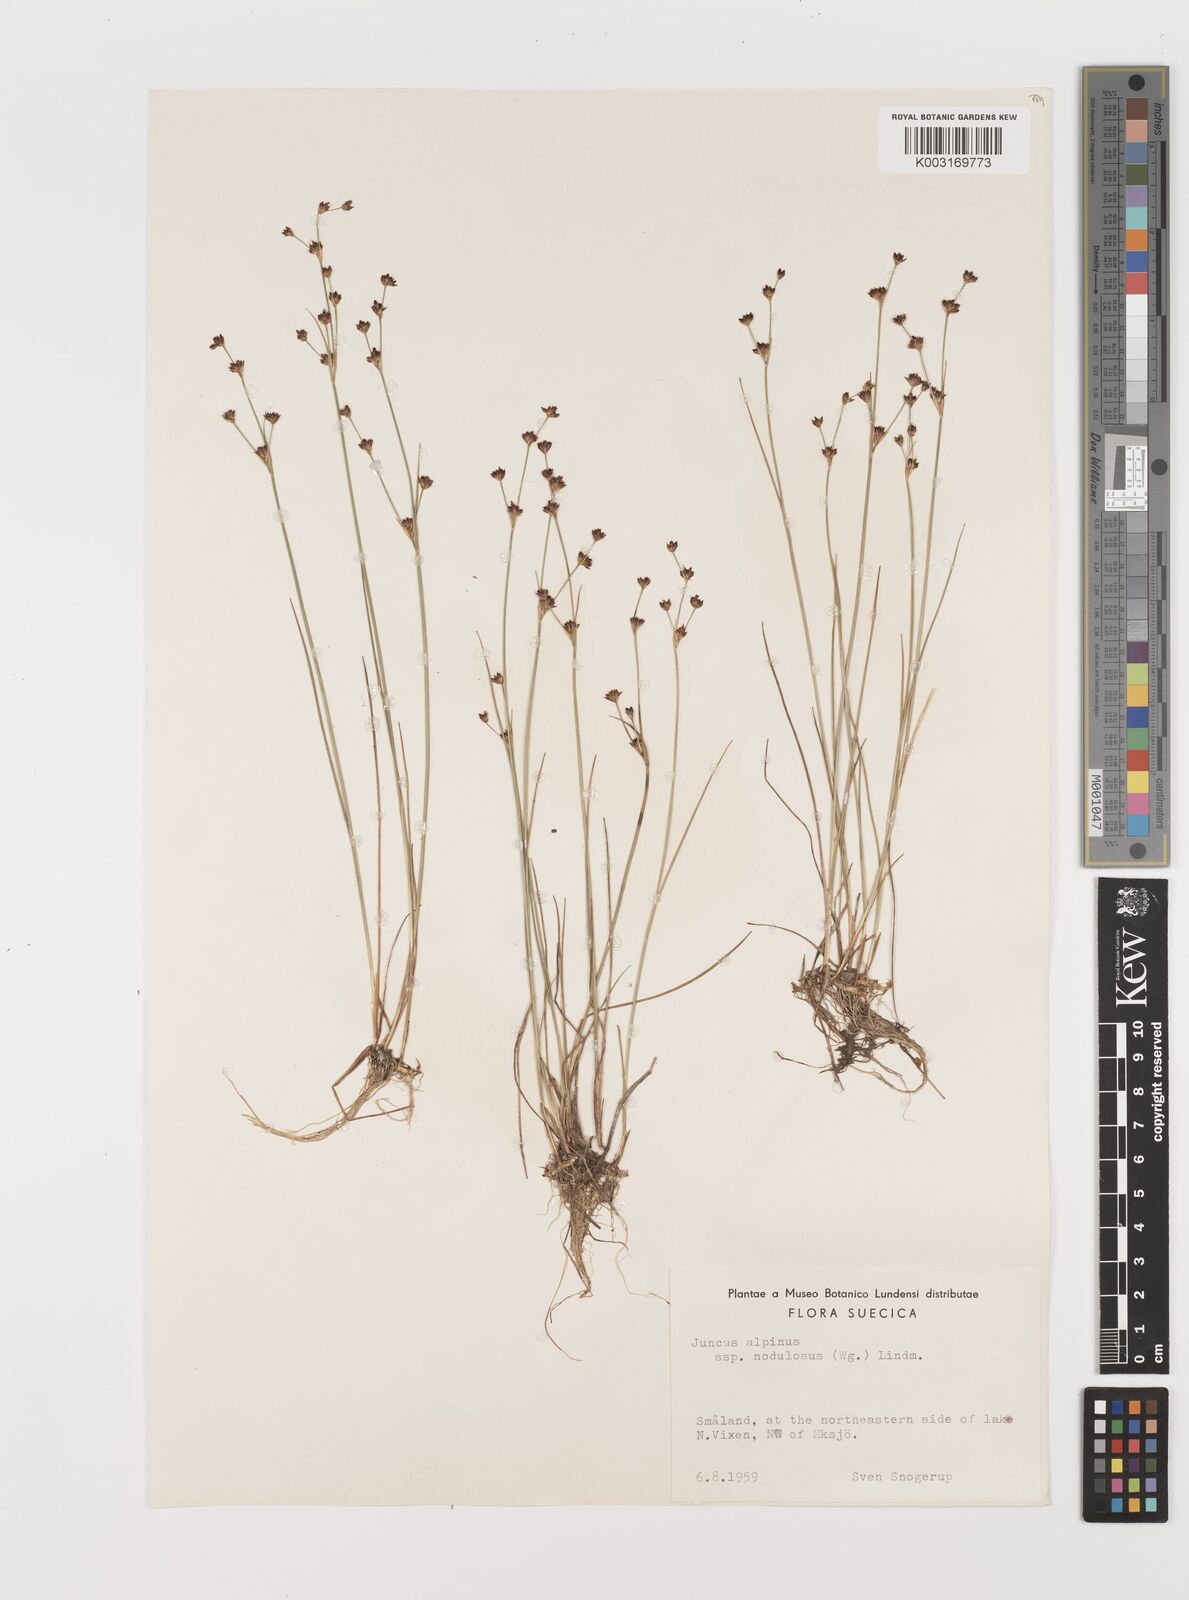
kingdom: Plantae
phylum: Tracheophyta
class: Liliopsida
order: Poales
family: Juncaceae
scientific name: Juncaceae
